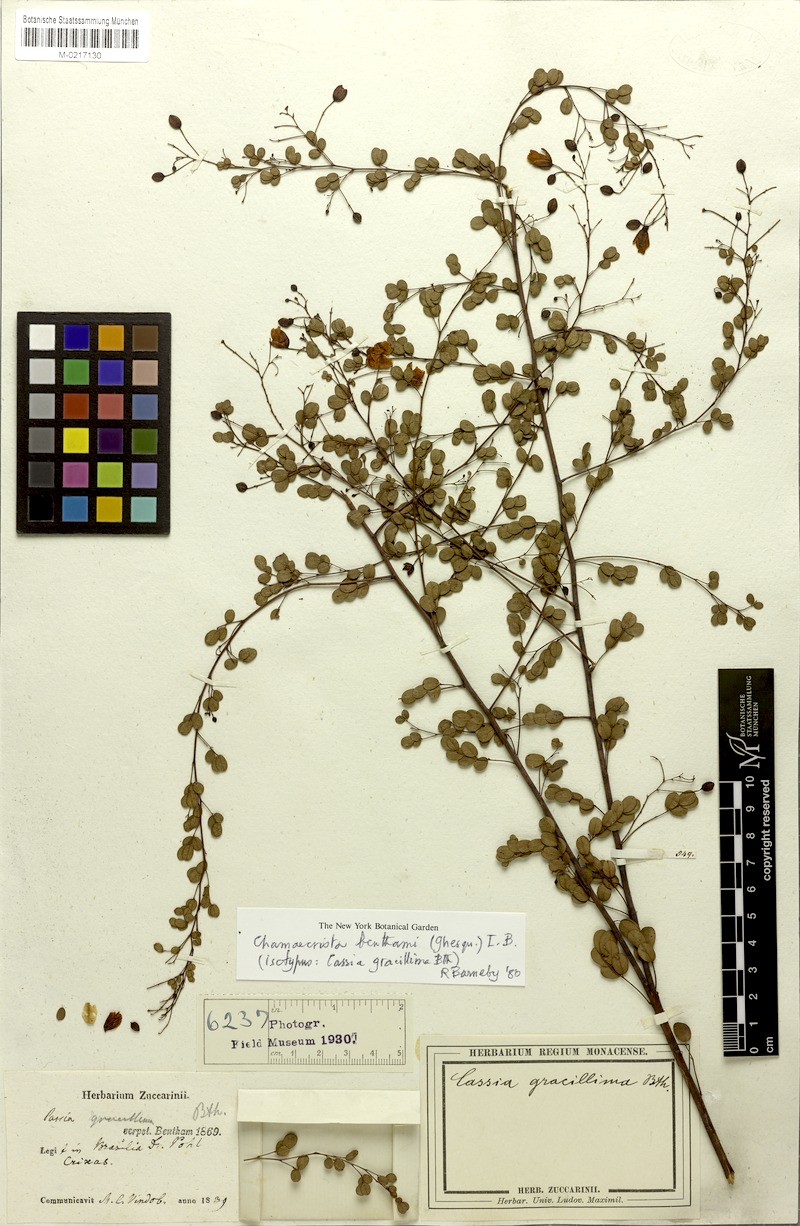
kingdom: Plantae
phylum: Tracheophyta
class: Magnoliopsida
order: Fabales
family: Fabaceae
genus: Chamaecrista
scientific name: Chamaecrista benthamii
